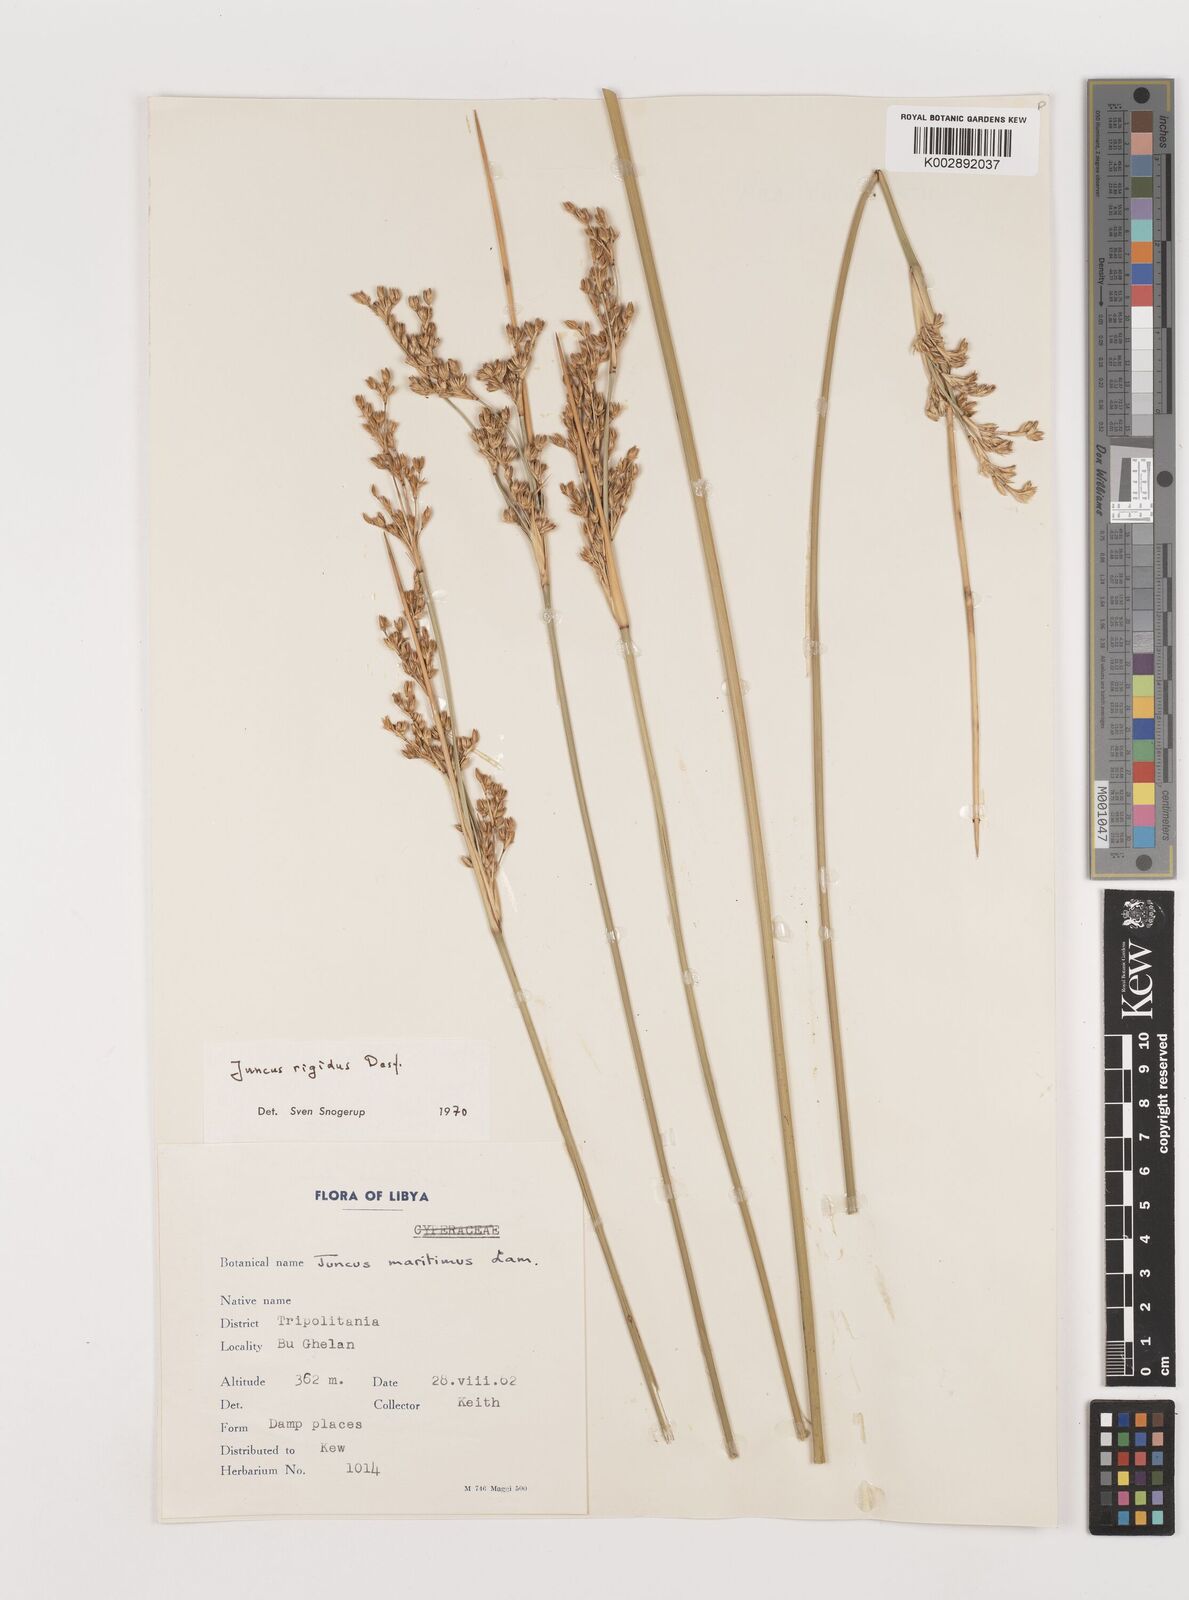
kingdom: Plantae
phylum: Tracheophyta
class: Liliopsida
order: Poales
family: Juncaceae
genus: Juncus
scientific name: Juncus rigidus
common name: Hard sea rush
